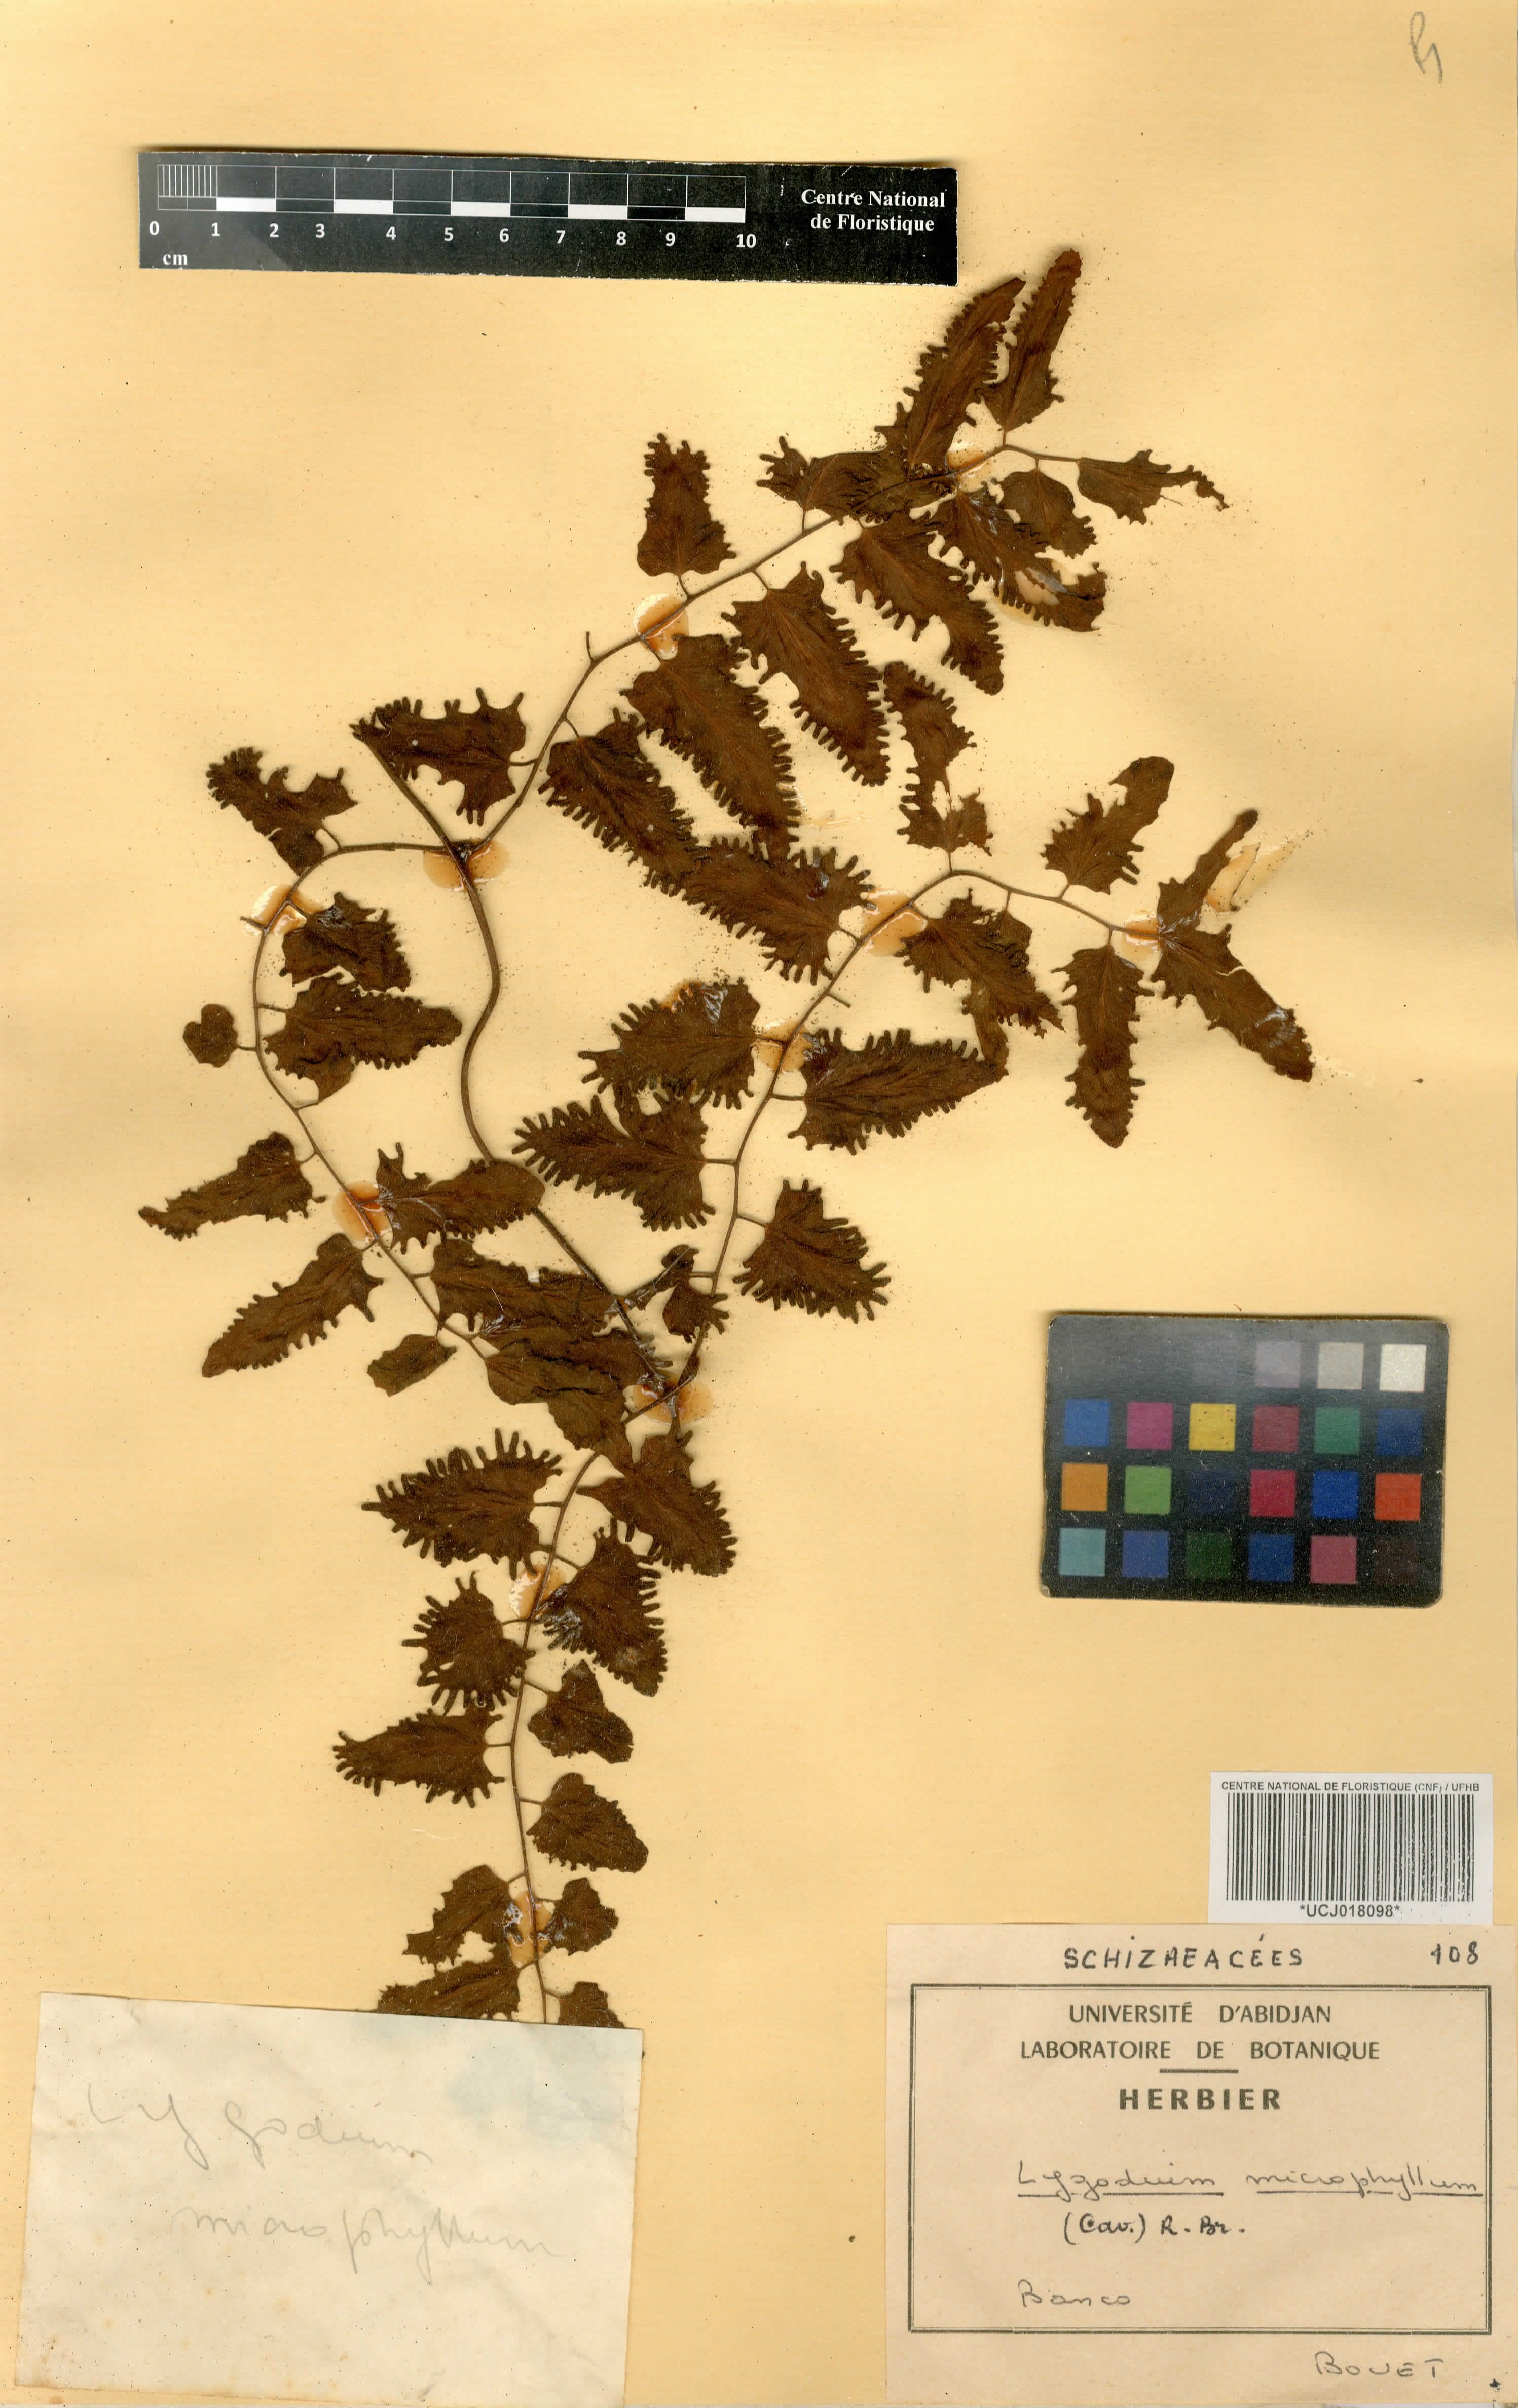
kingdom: Plantae
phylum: Tracheophyta
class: Polypodiopsida
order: Schizaeales
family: Lygodiaceae
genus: Lygodium
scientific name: Lygodium microphyllum
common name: Small-leaf climbing fern
